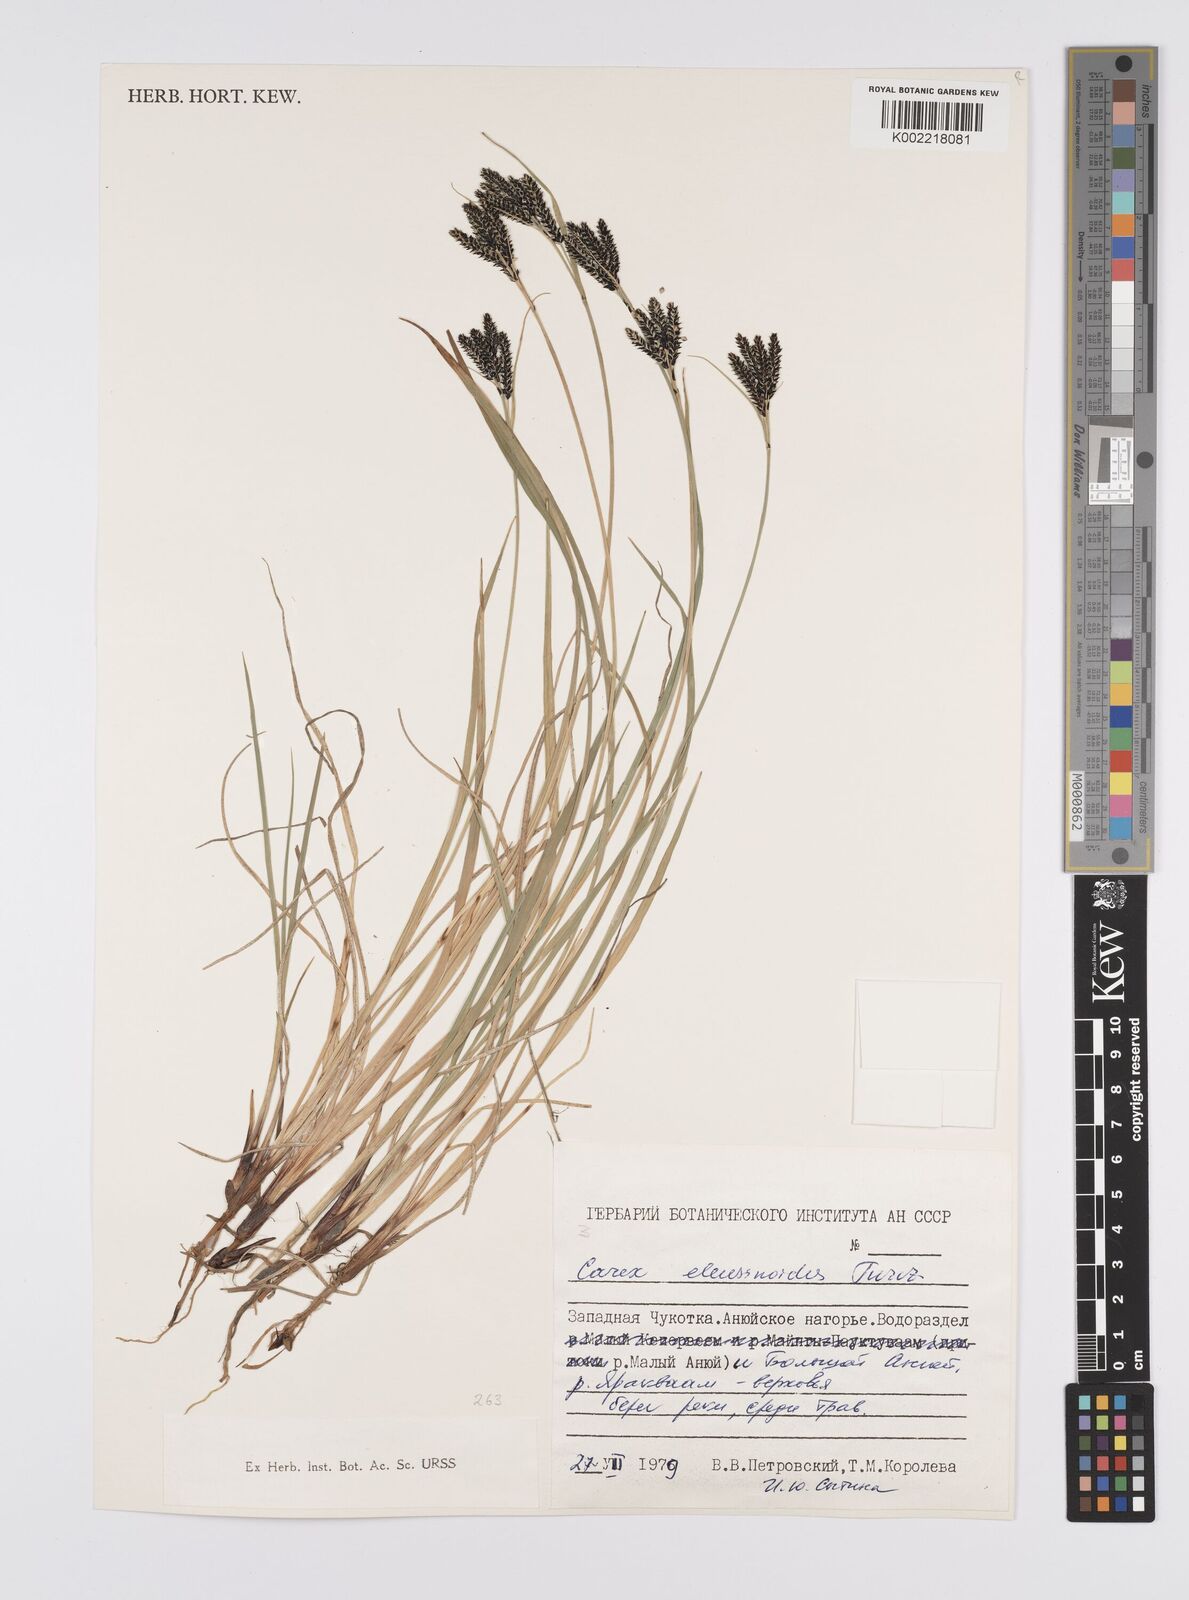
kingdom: Plantae
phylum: Tracheophyta
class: Liliopsida
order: Poales
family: Cyperaceae
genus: Carex
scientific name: Carex eleusinoides
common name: Goosegrass sedge
